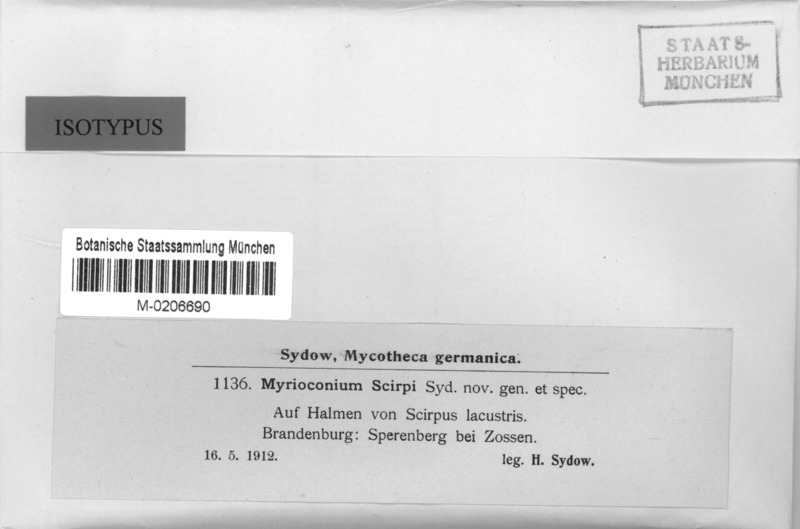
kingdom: Fungi
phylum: Ascomycota
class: Leotiomycetes
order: Helotiales
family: Sclerotiniaceae
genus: Myrioconium
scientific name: Myrioconium scirpi
